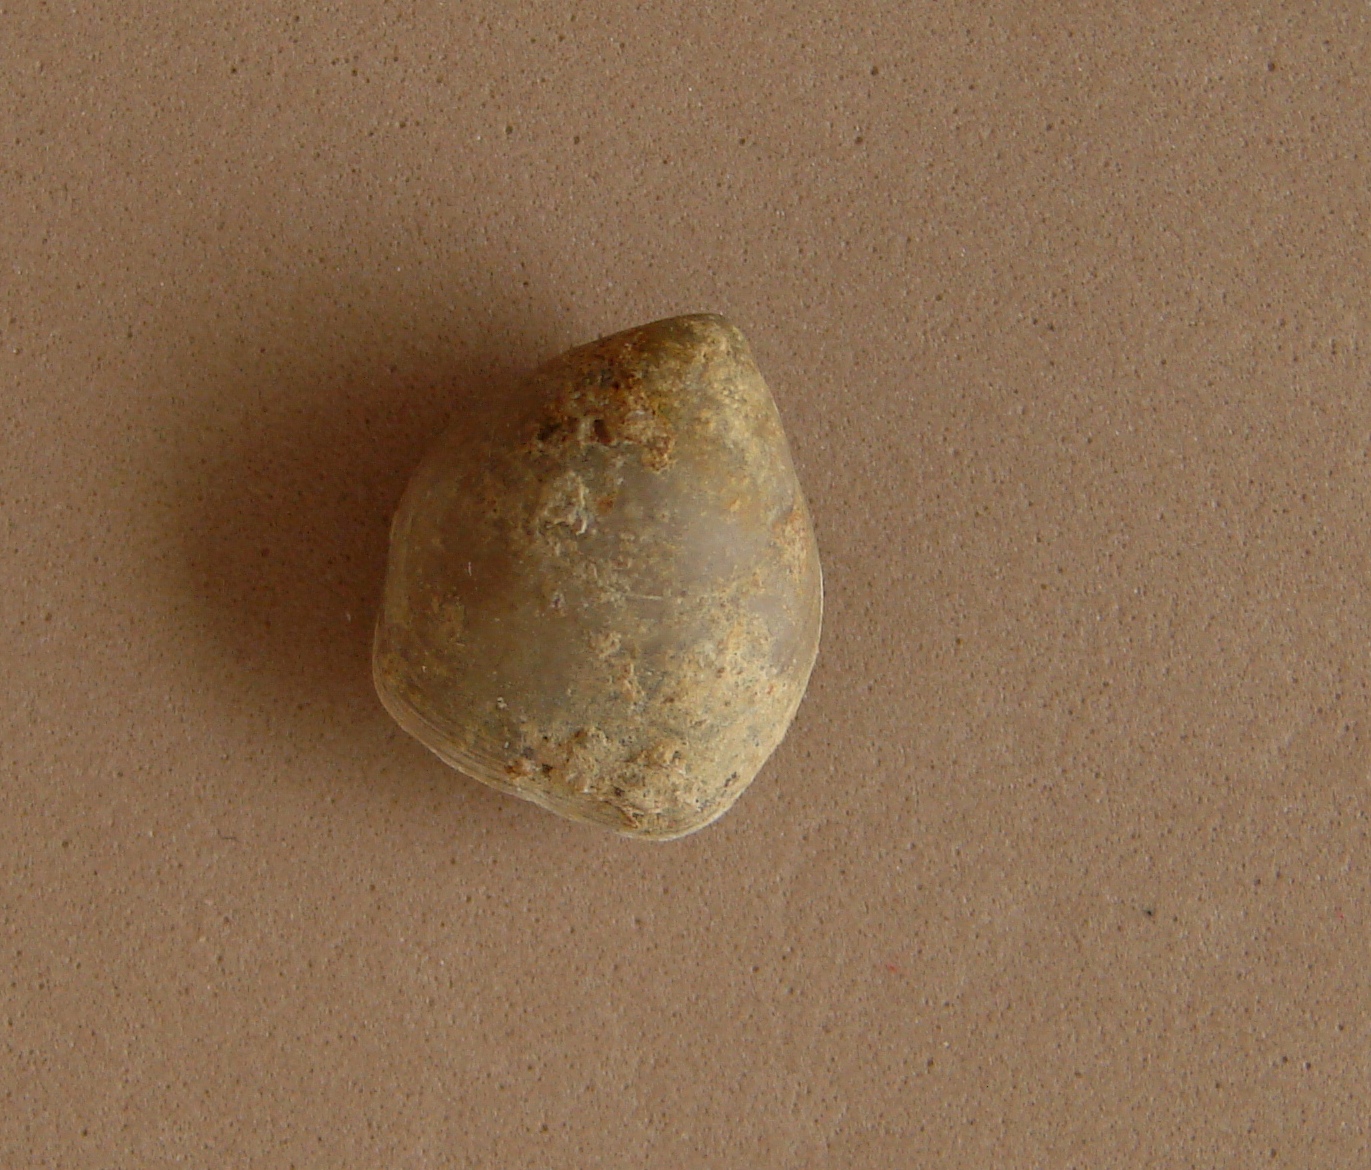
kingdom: Animalia
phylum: Brachiopoda
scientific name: Brachiopoda
